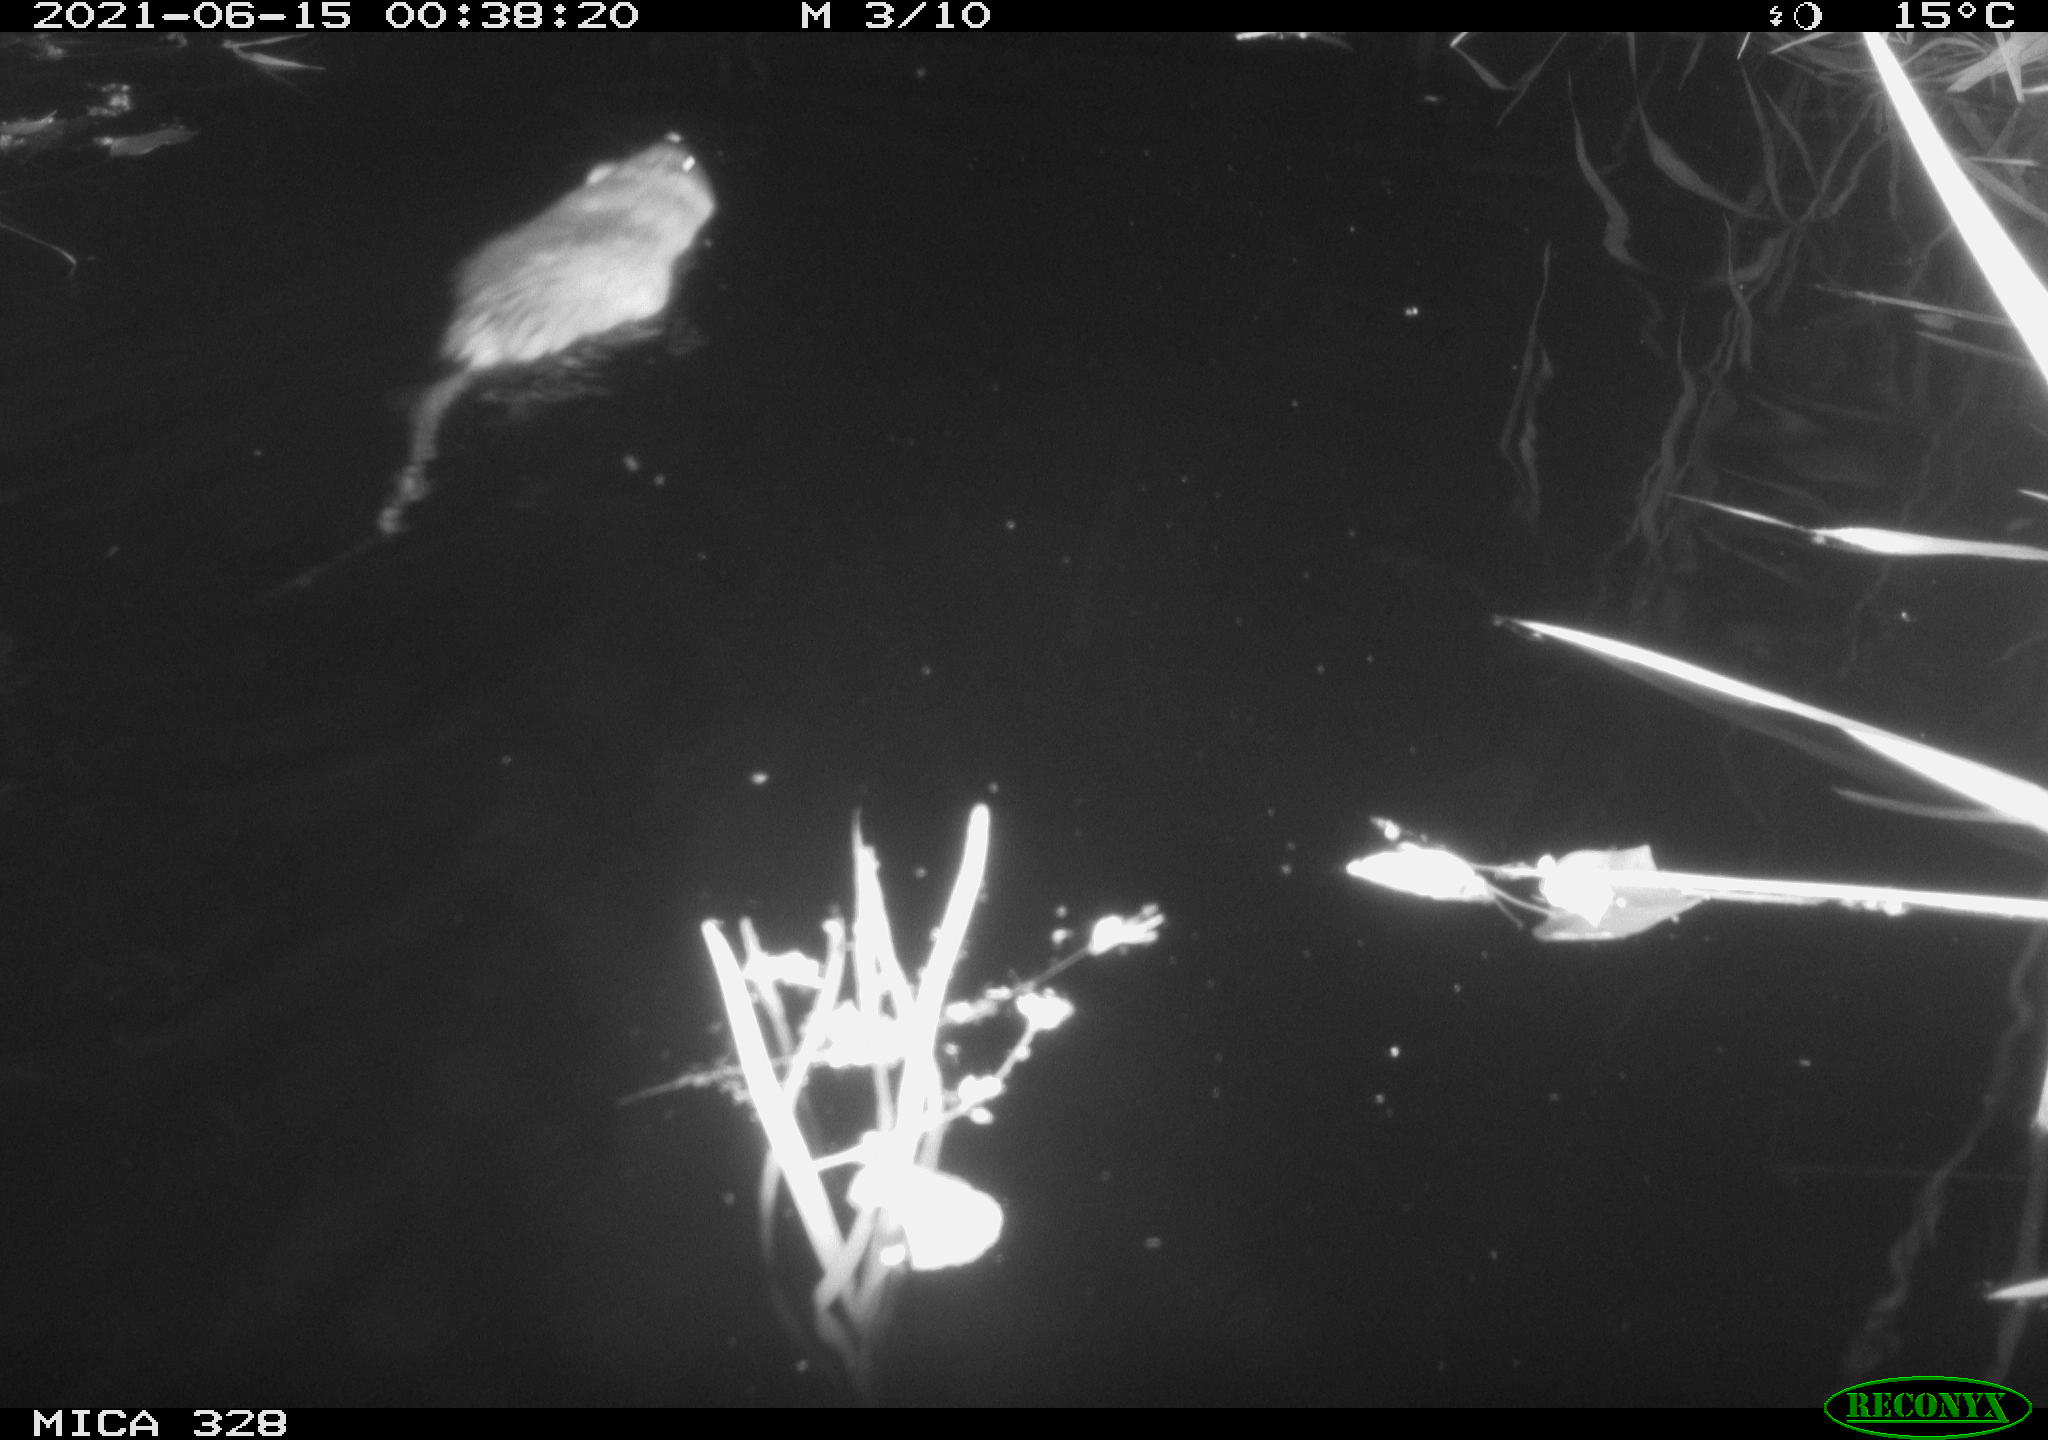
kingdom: Animalia
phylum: Chordata
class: Mammalia
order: Rodentia
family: Cricetidae
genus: Ondatra
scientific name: Ondatra zibethicus
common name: Muskrat
